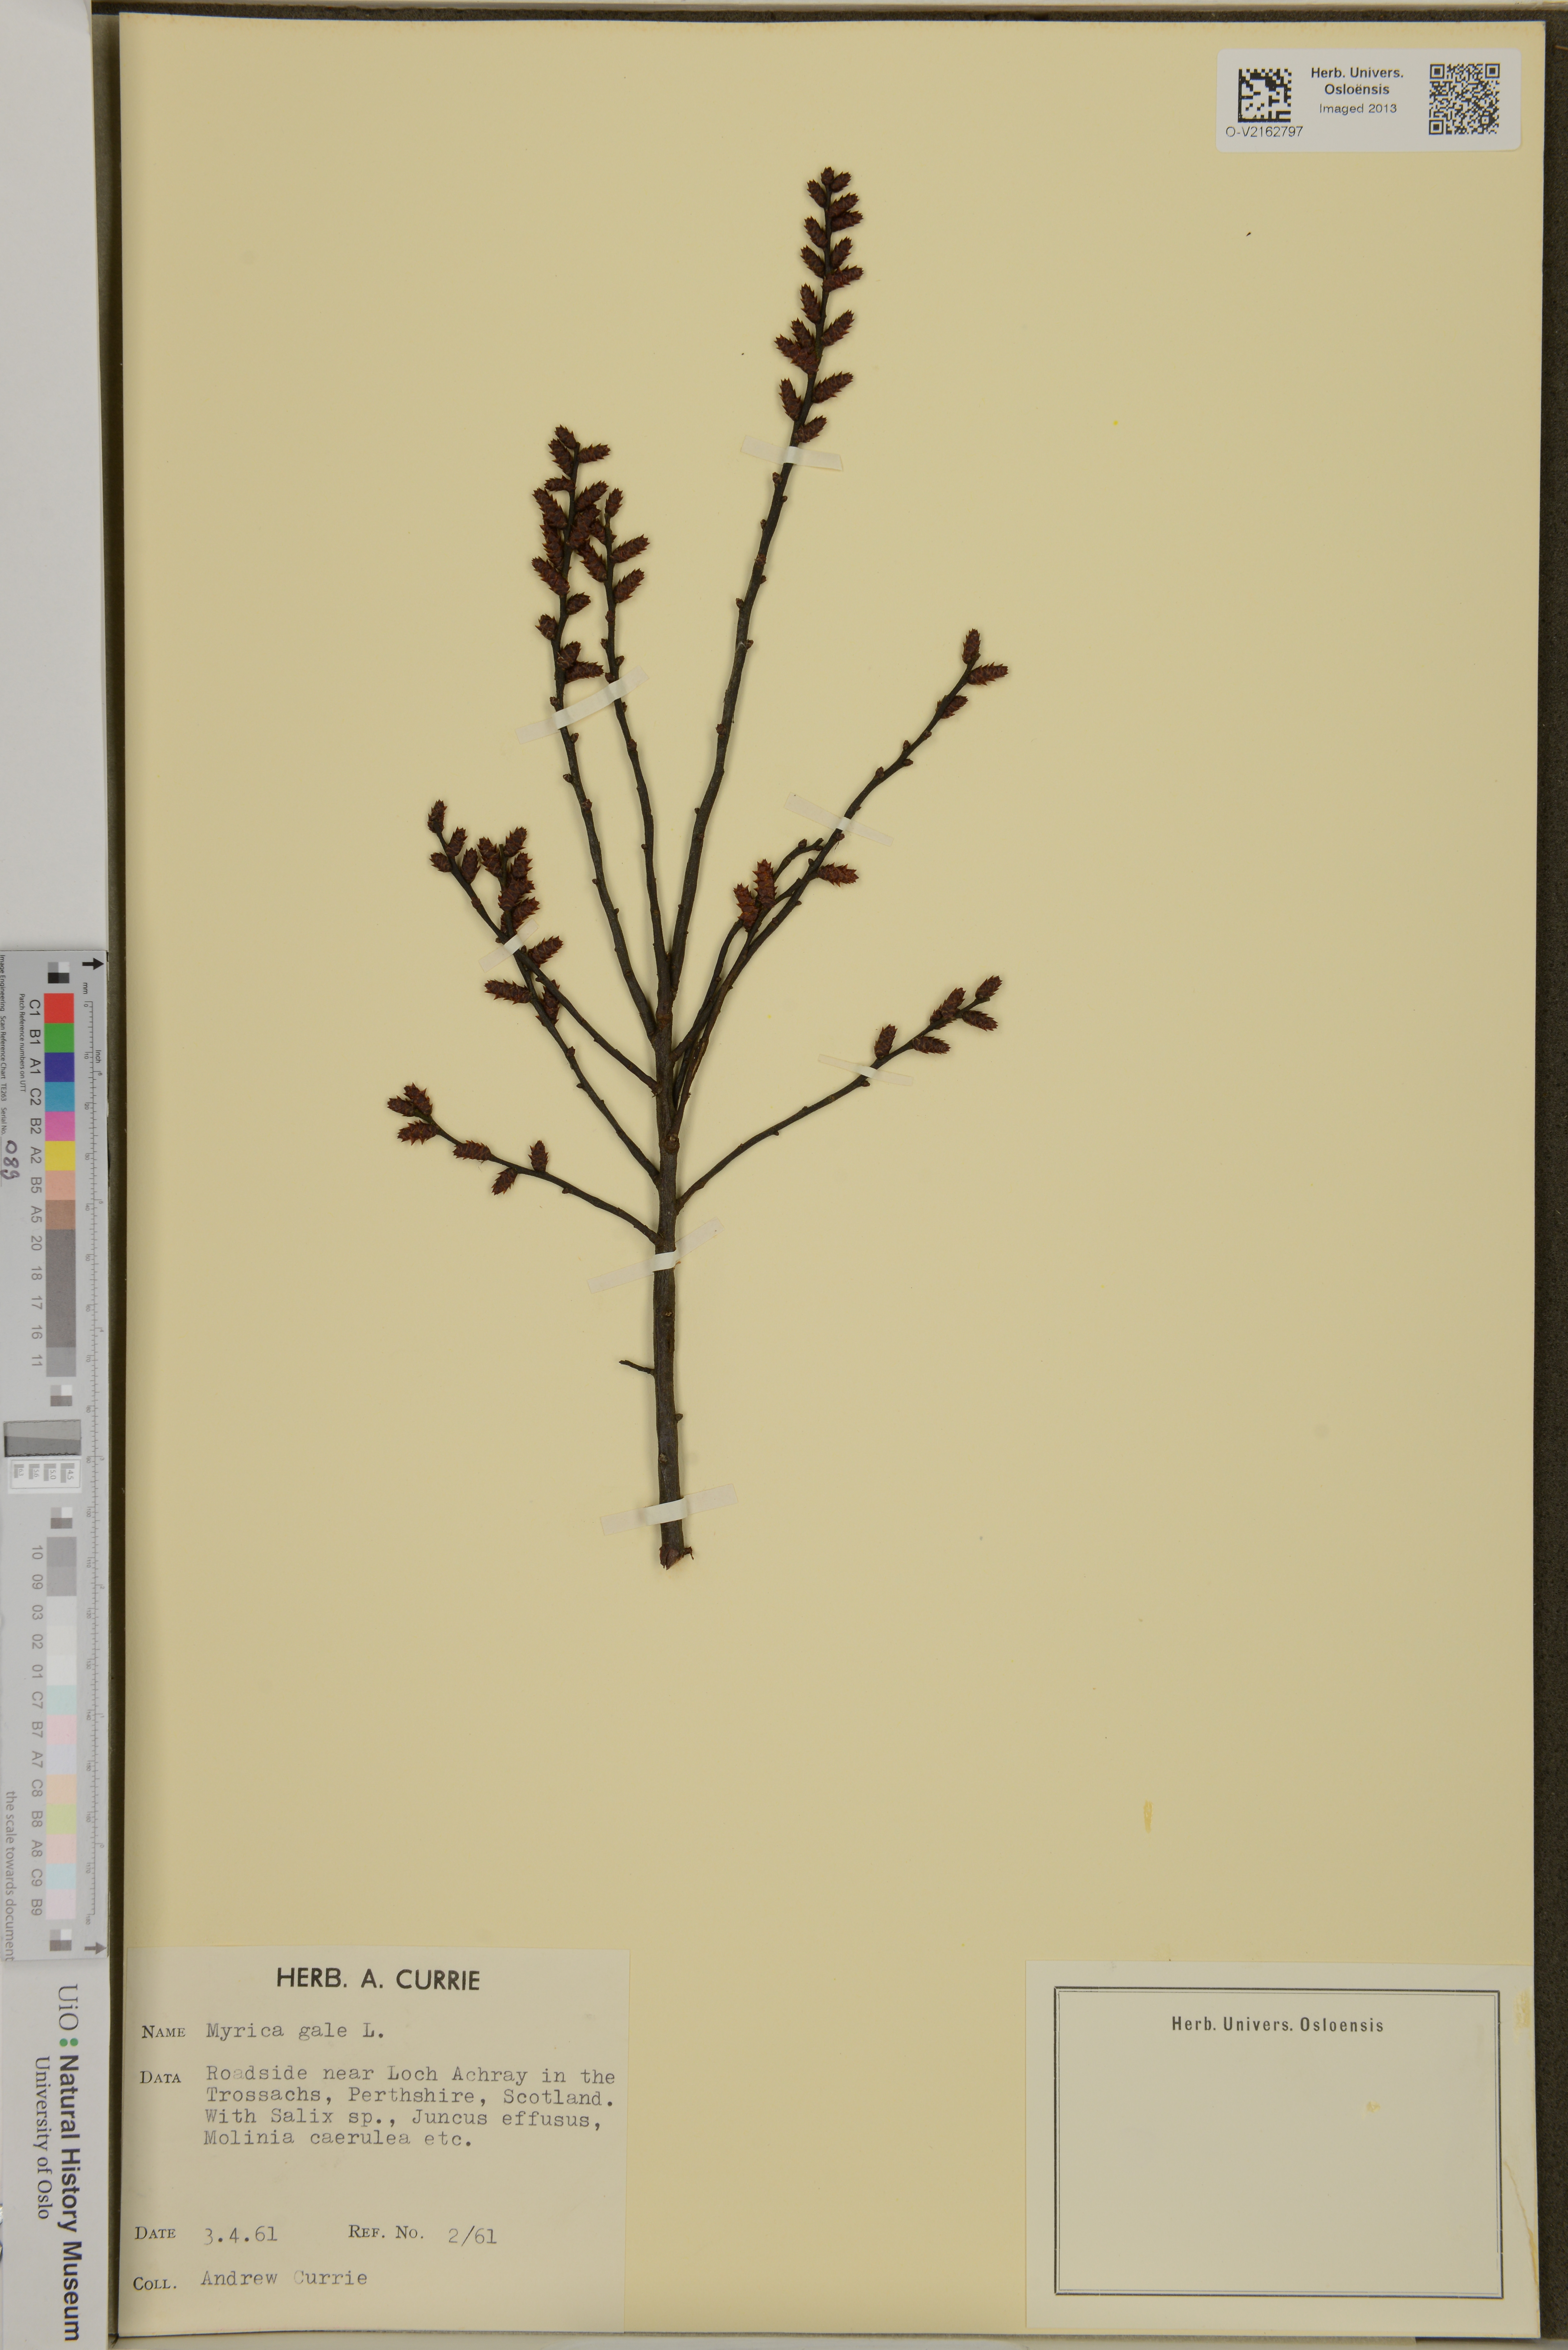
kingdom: Plantae
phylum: Tracheophyta
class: Magnoliopsida
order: Fagales
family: Myricaceae
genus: Myrica
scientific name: Myrica gale
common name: Sweet gale
